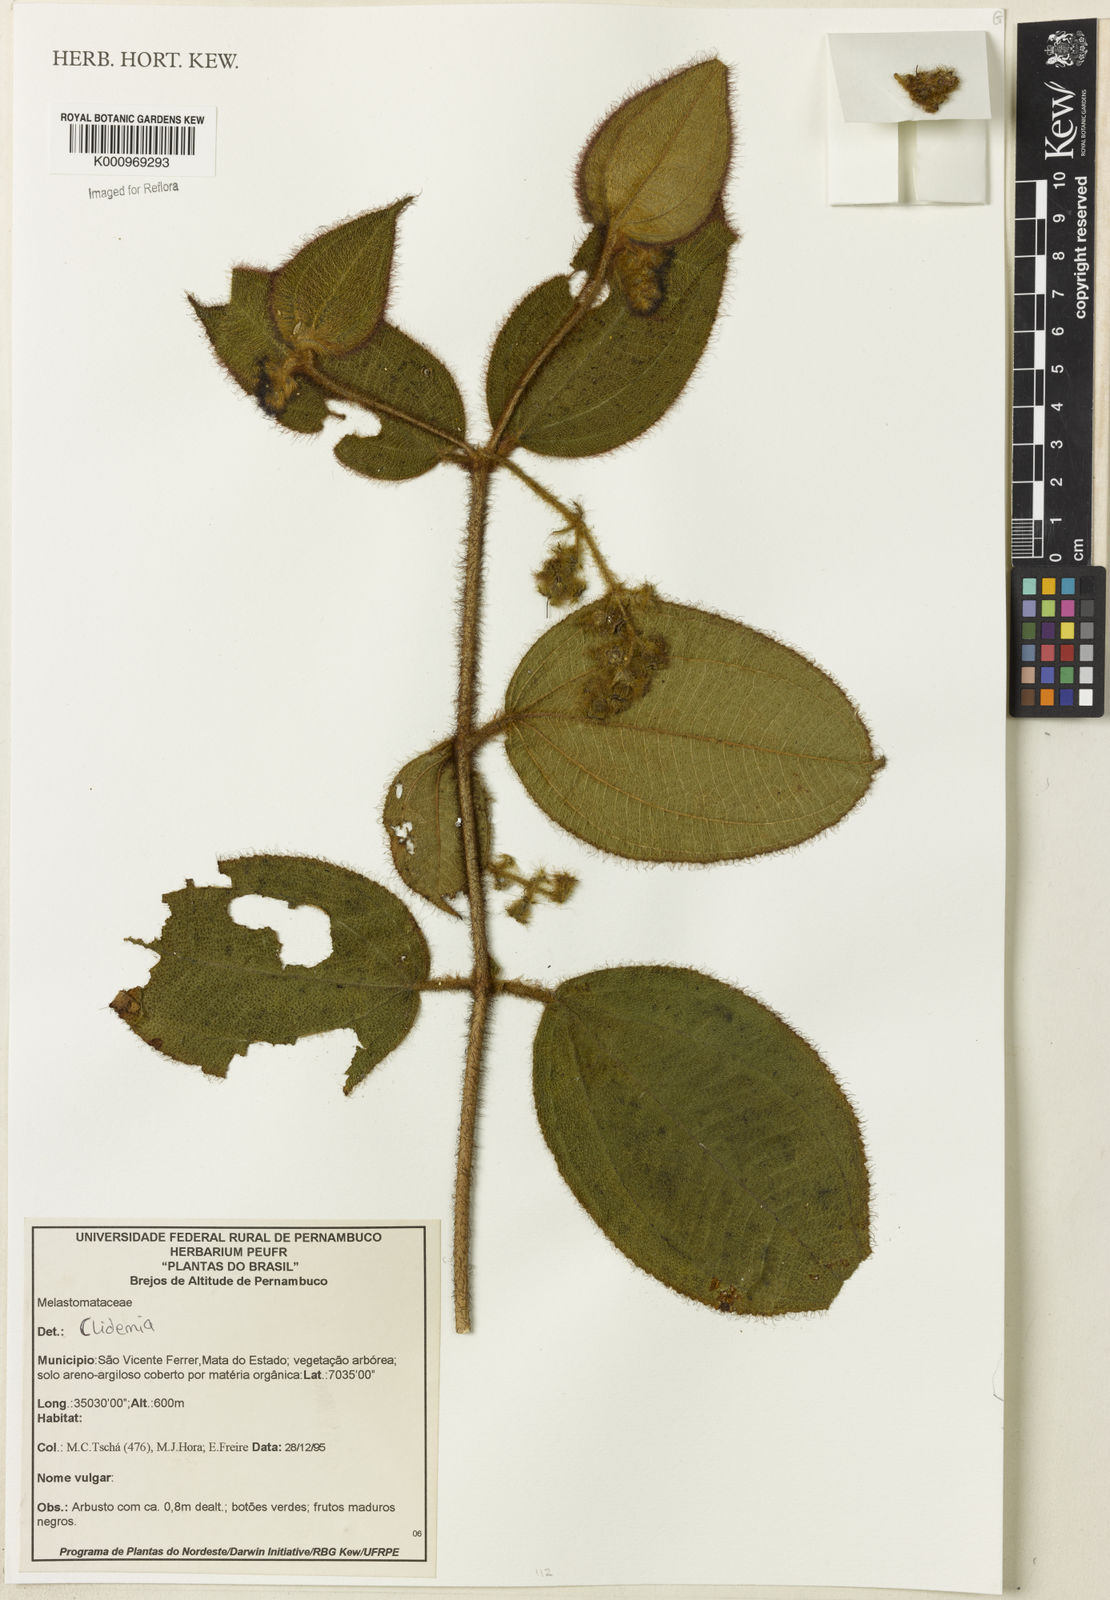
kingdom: Plantae
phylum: Tracheophyta
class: Magnoliopsida
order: Myrtales
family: Melastomataceae
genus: Miconia
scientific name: Miconia
